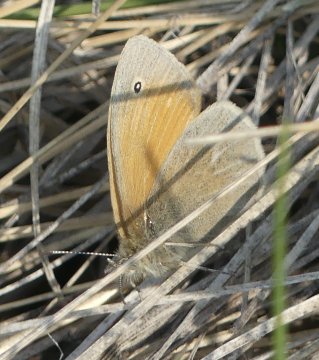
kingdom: Animalia
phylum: Arthropoda
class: Insecta
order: Lepidoptera
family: Nymphalidae
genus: Coenonympha
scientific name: Coenonympha tullia
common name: Large Heath
